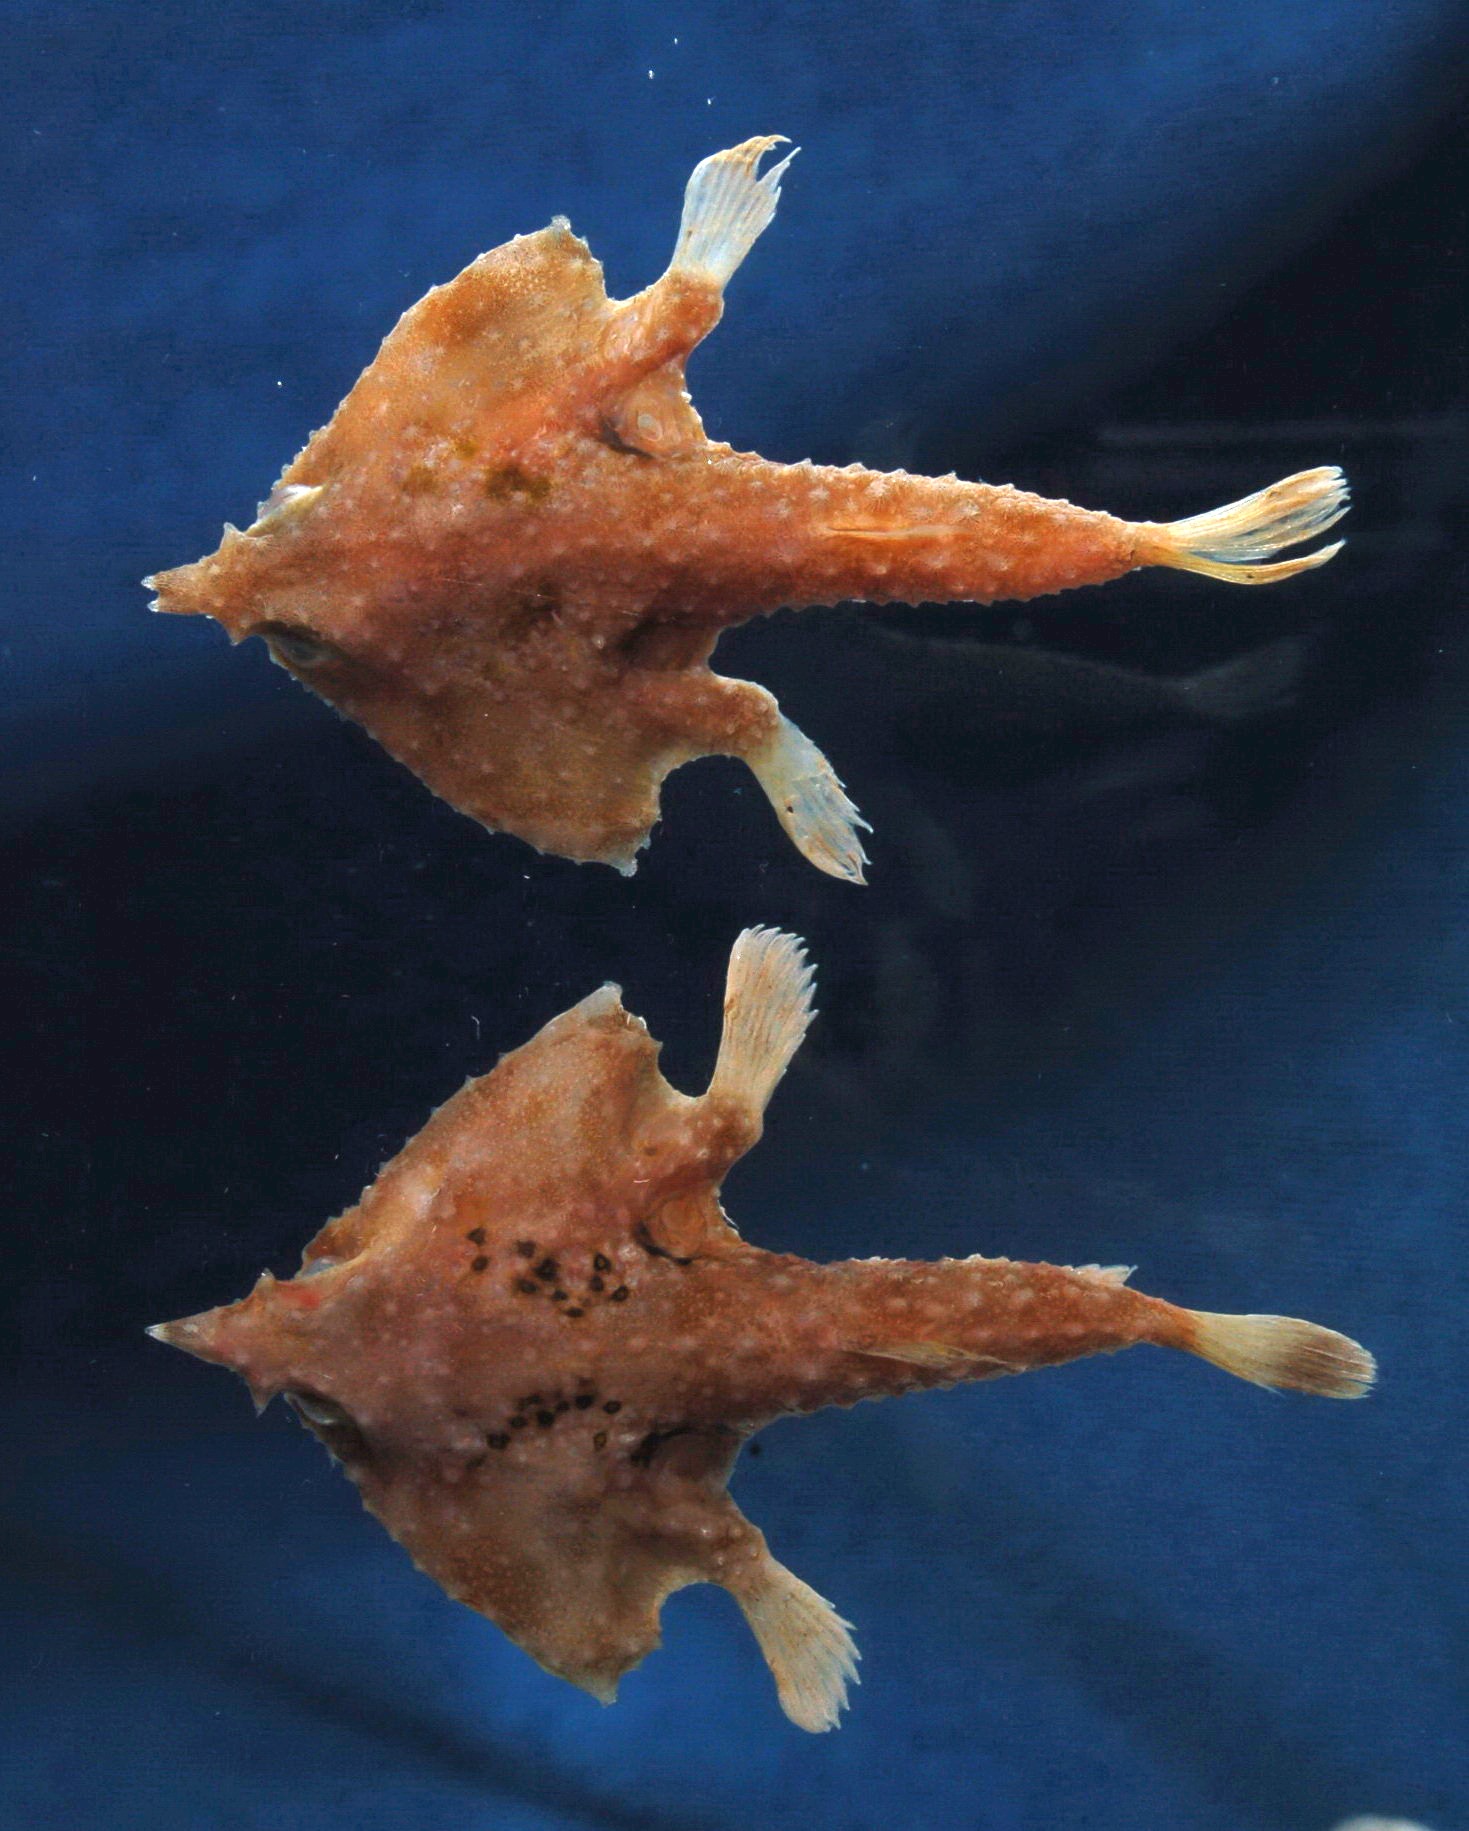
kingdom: Animalia
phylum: Chordata
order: Lophiiformes
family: Ogcocephalidae
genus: Malthopsis
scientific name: Malthopsis austrafricana
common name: South african triangular batfish
